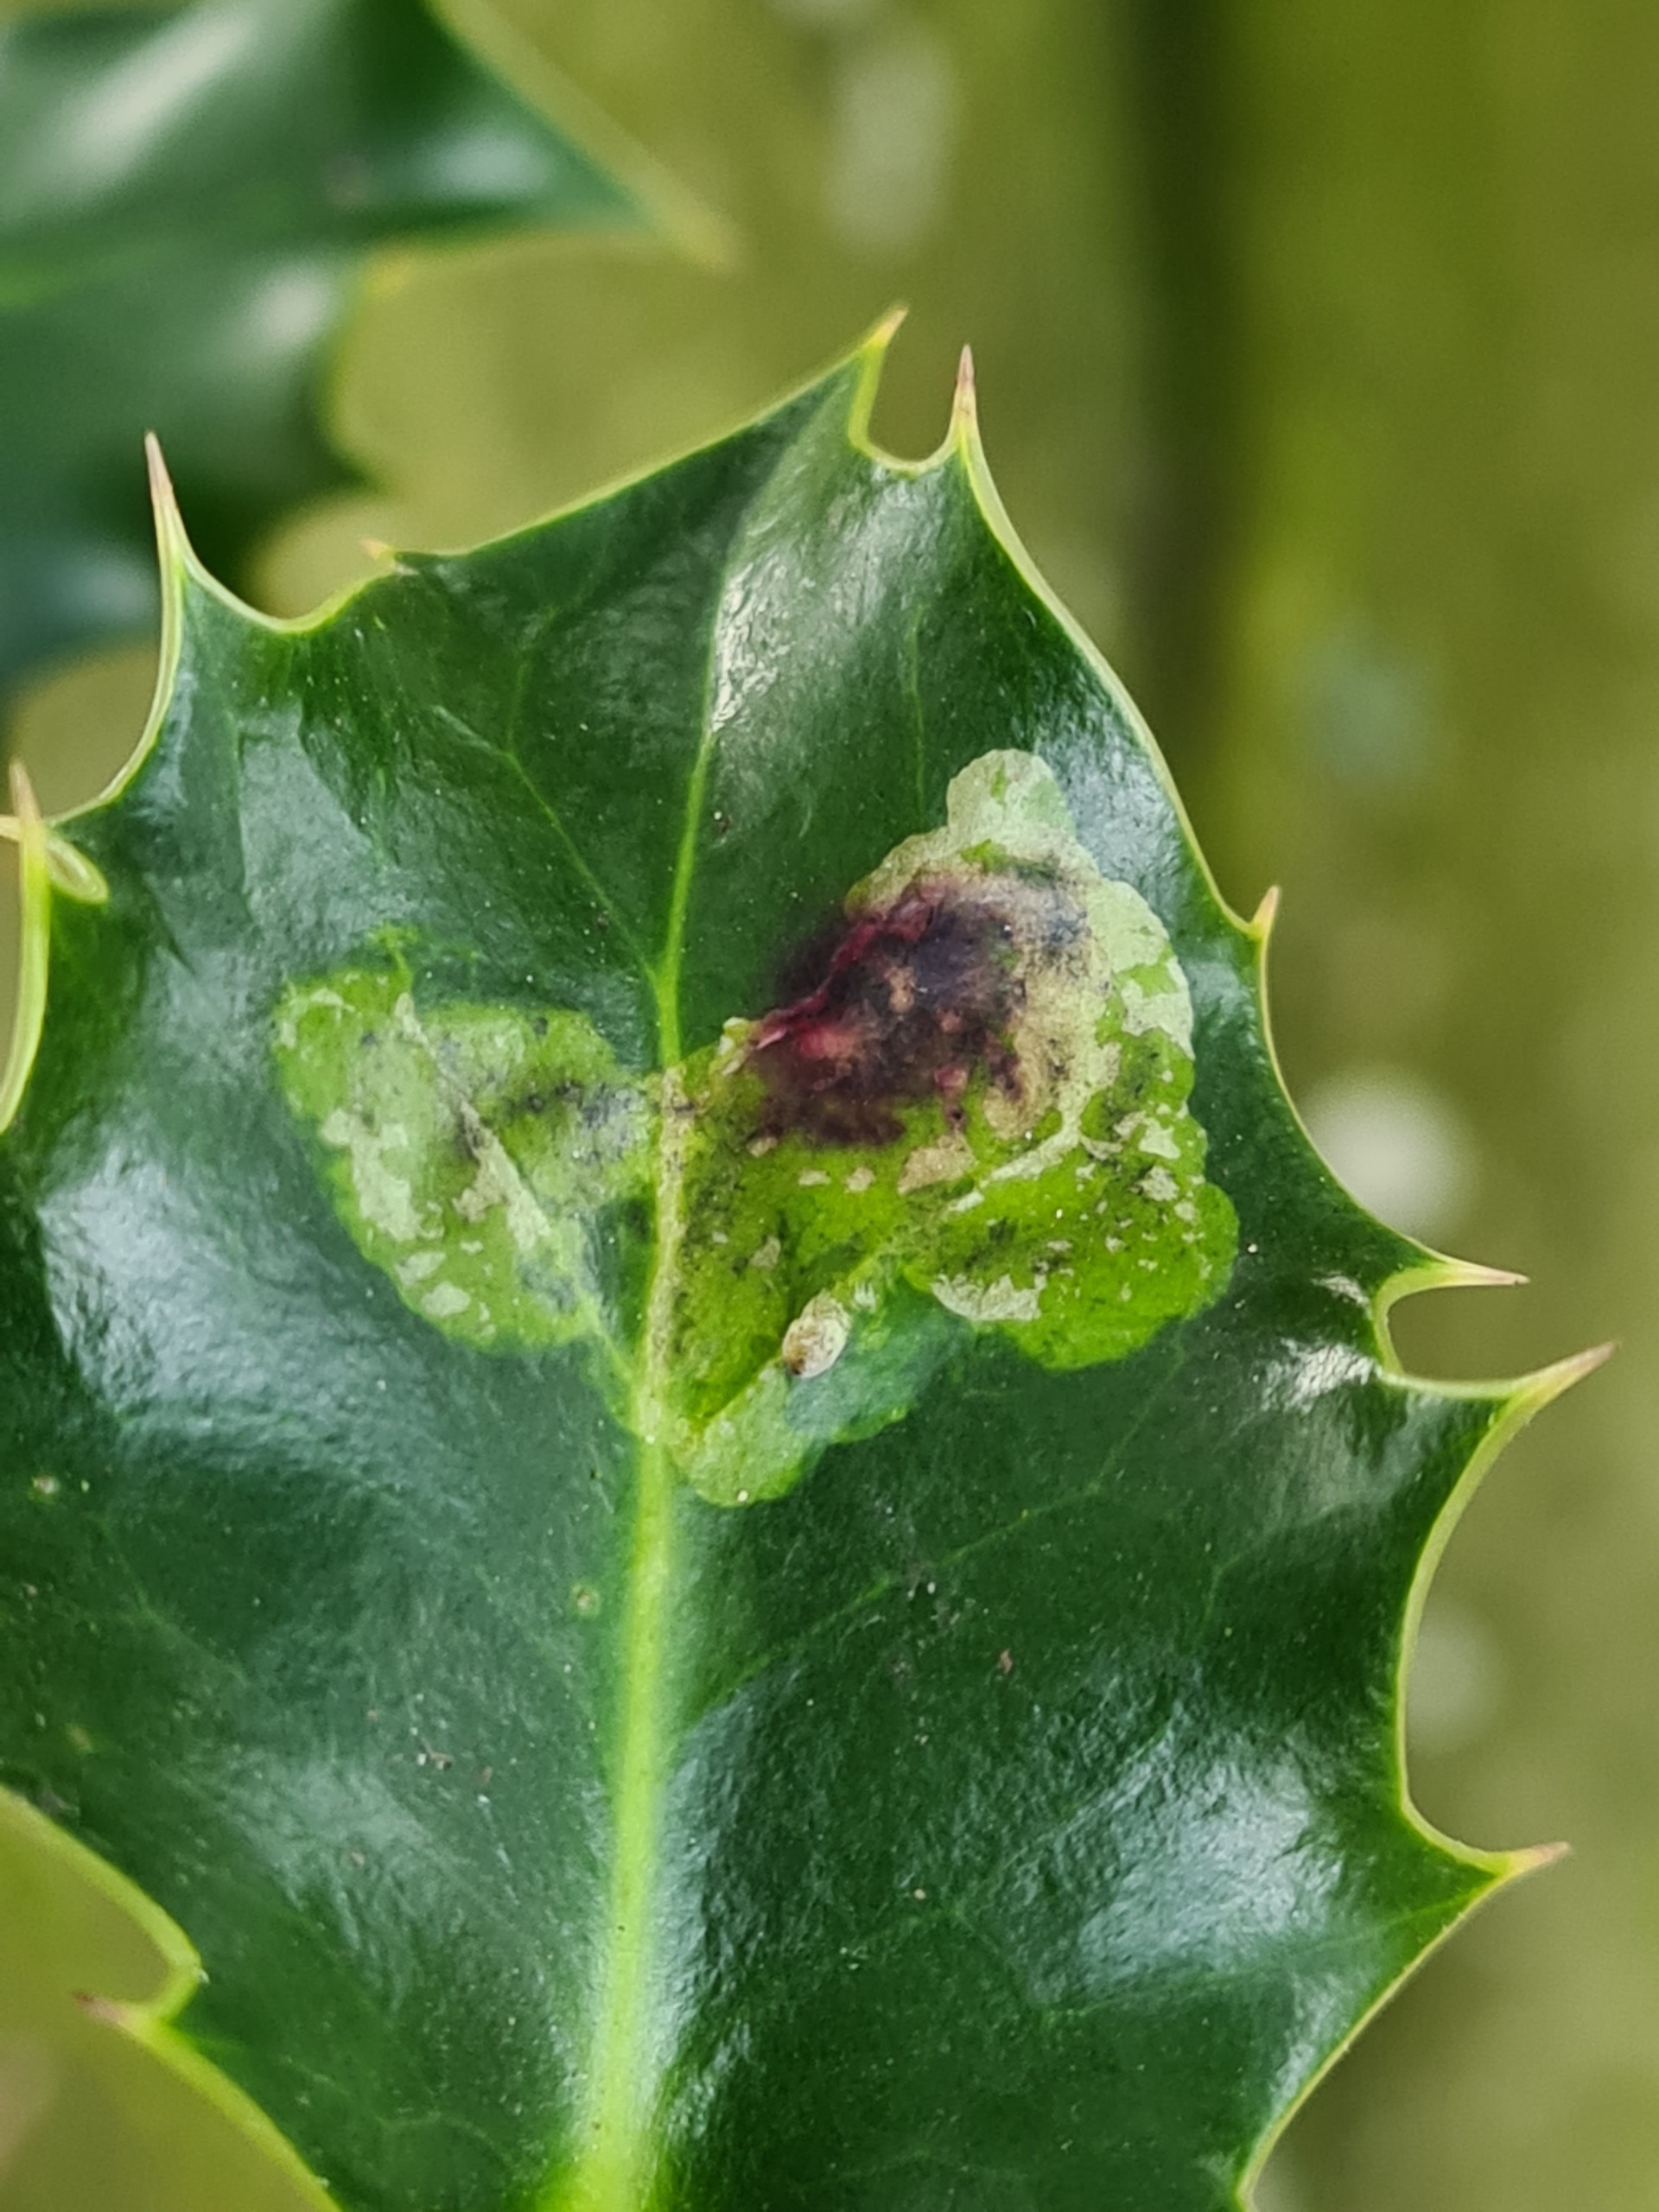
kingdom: Animalia
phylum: Arthropoda
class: Insecta
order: Diptera
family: Agromyzidae
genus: Phytomyza
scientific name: Phytomyza ilicis
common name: Kristtornminérflue
